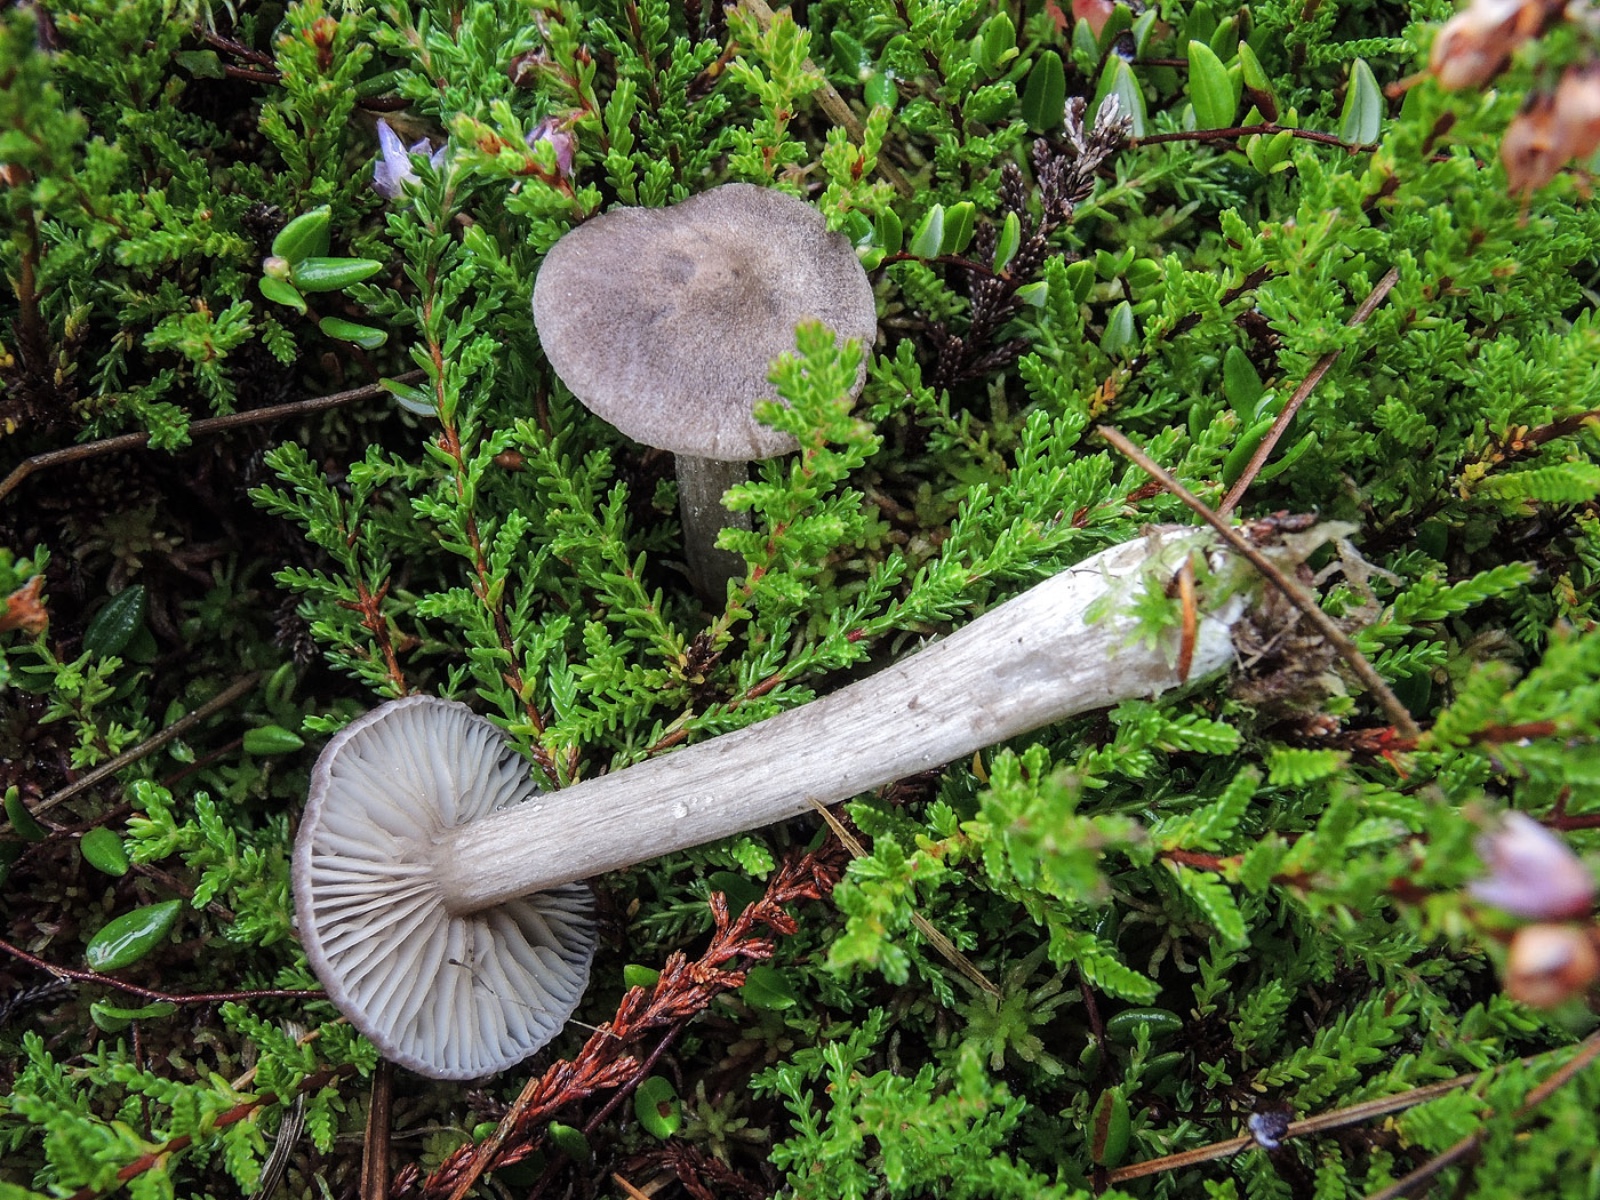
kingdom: Fungi
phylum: Basidiomycota
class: Agaricomycetes
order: Agaricales
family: Entolomataceae
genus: Entoloma
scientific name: Entoloma elodes
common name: mørkægget rødblad
